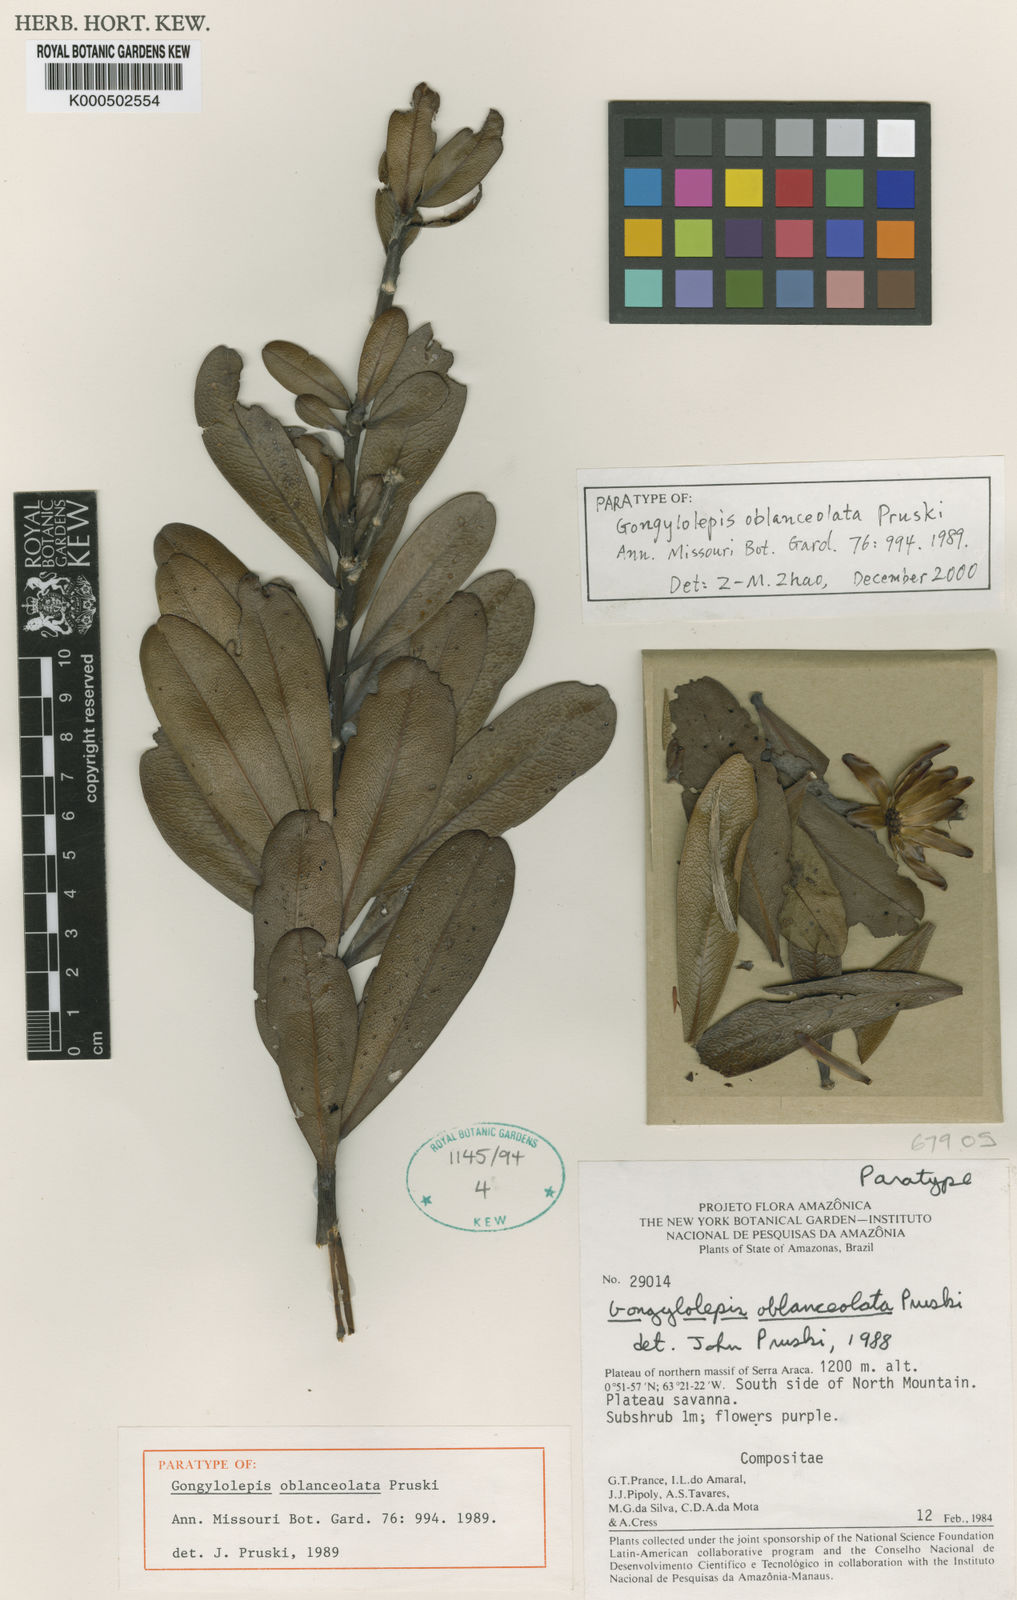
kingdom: Plantae
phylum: Tracheophyta
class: Magnoliopsida
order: Asterales
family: Asteraceae
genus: Gongylolepis
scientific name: Gongylolepis oblanceolata
